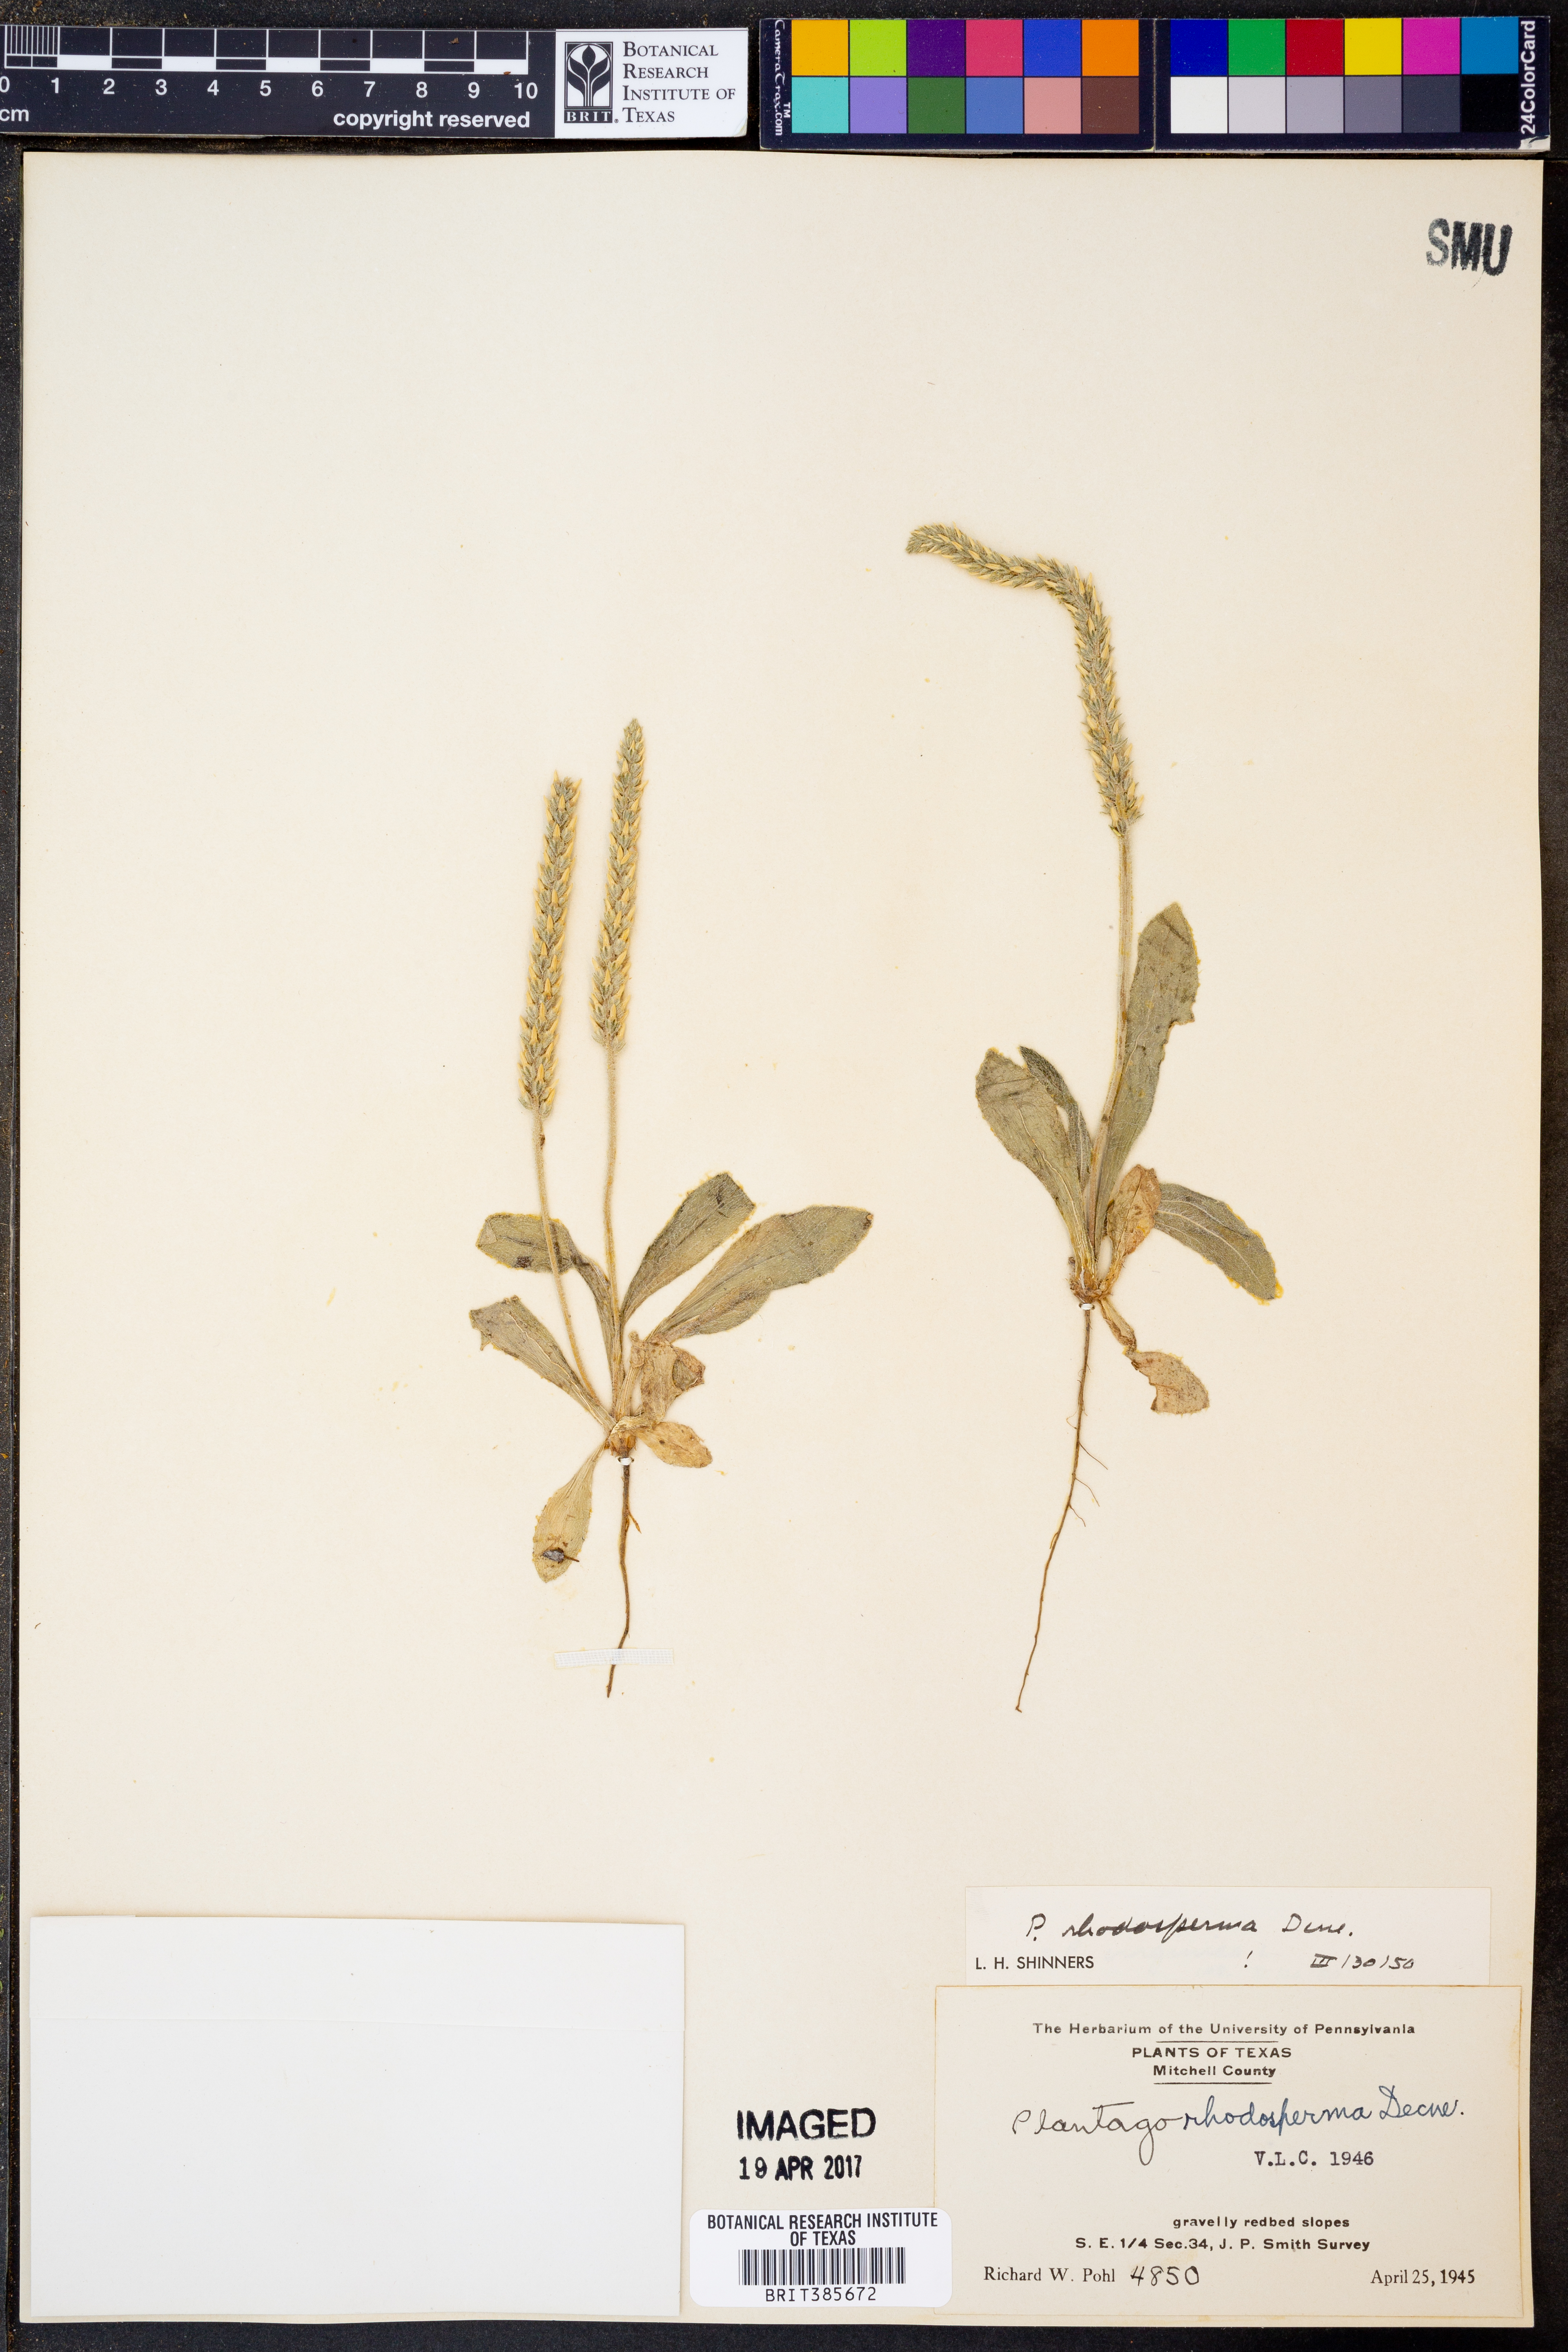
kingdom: Plantae
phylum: Tracheophyta
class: Magnoliopsida
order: Lamiales
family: Plantaginaceae
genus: Plantago
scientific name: Plantago rhodosperma
